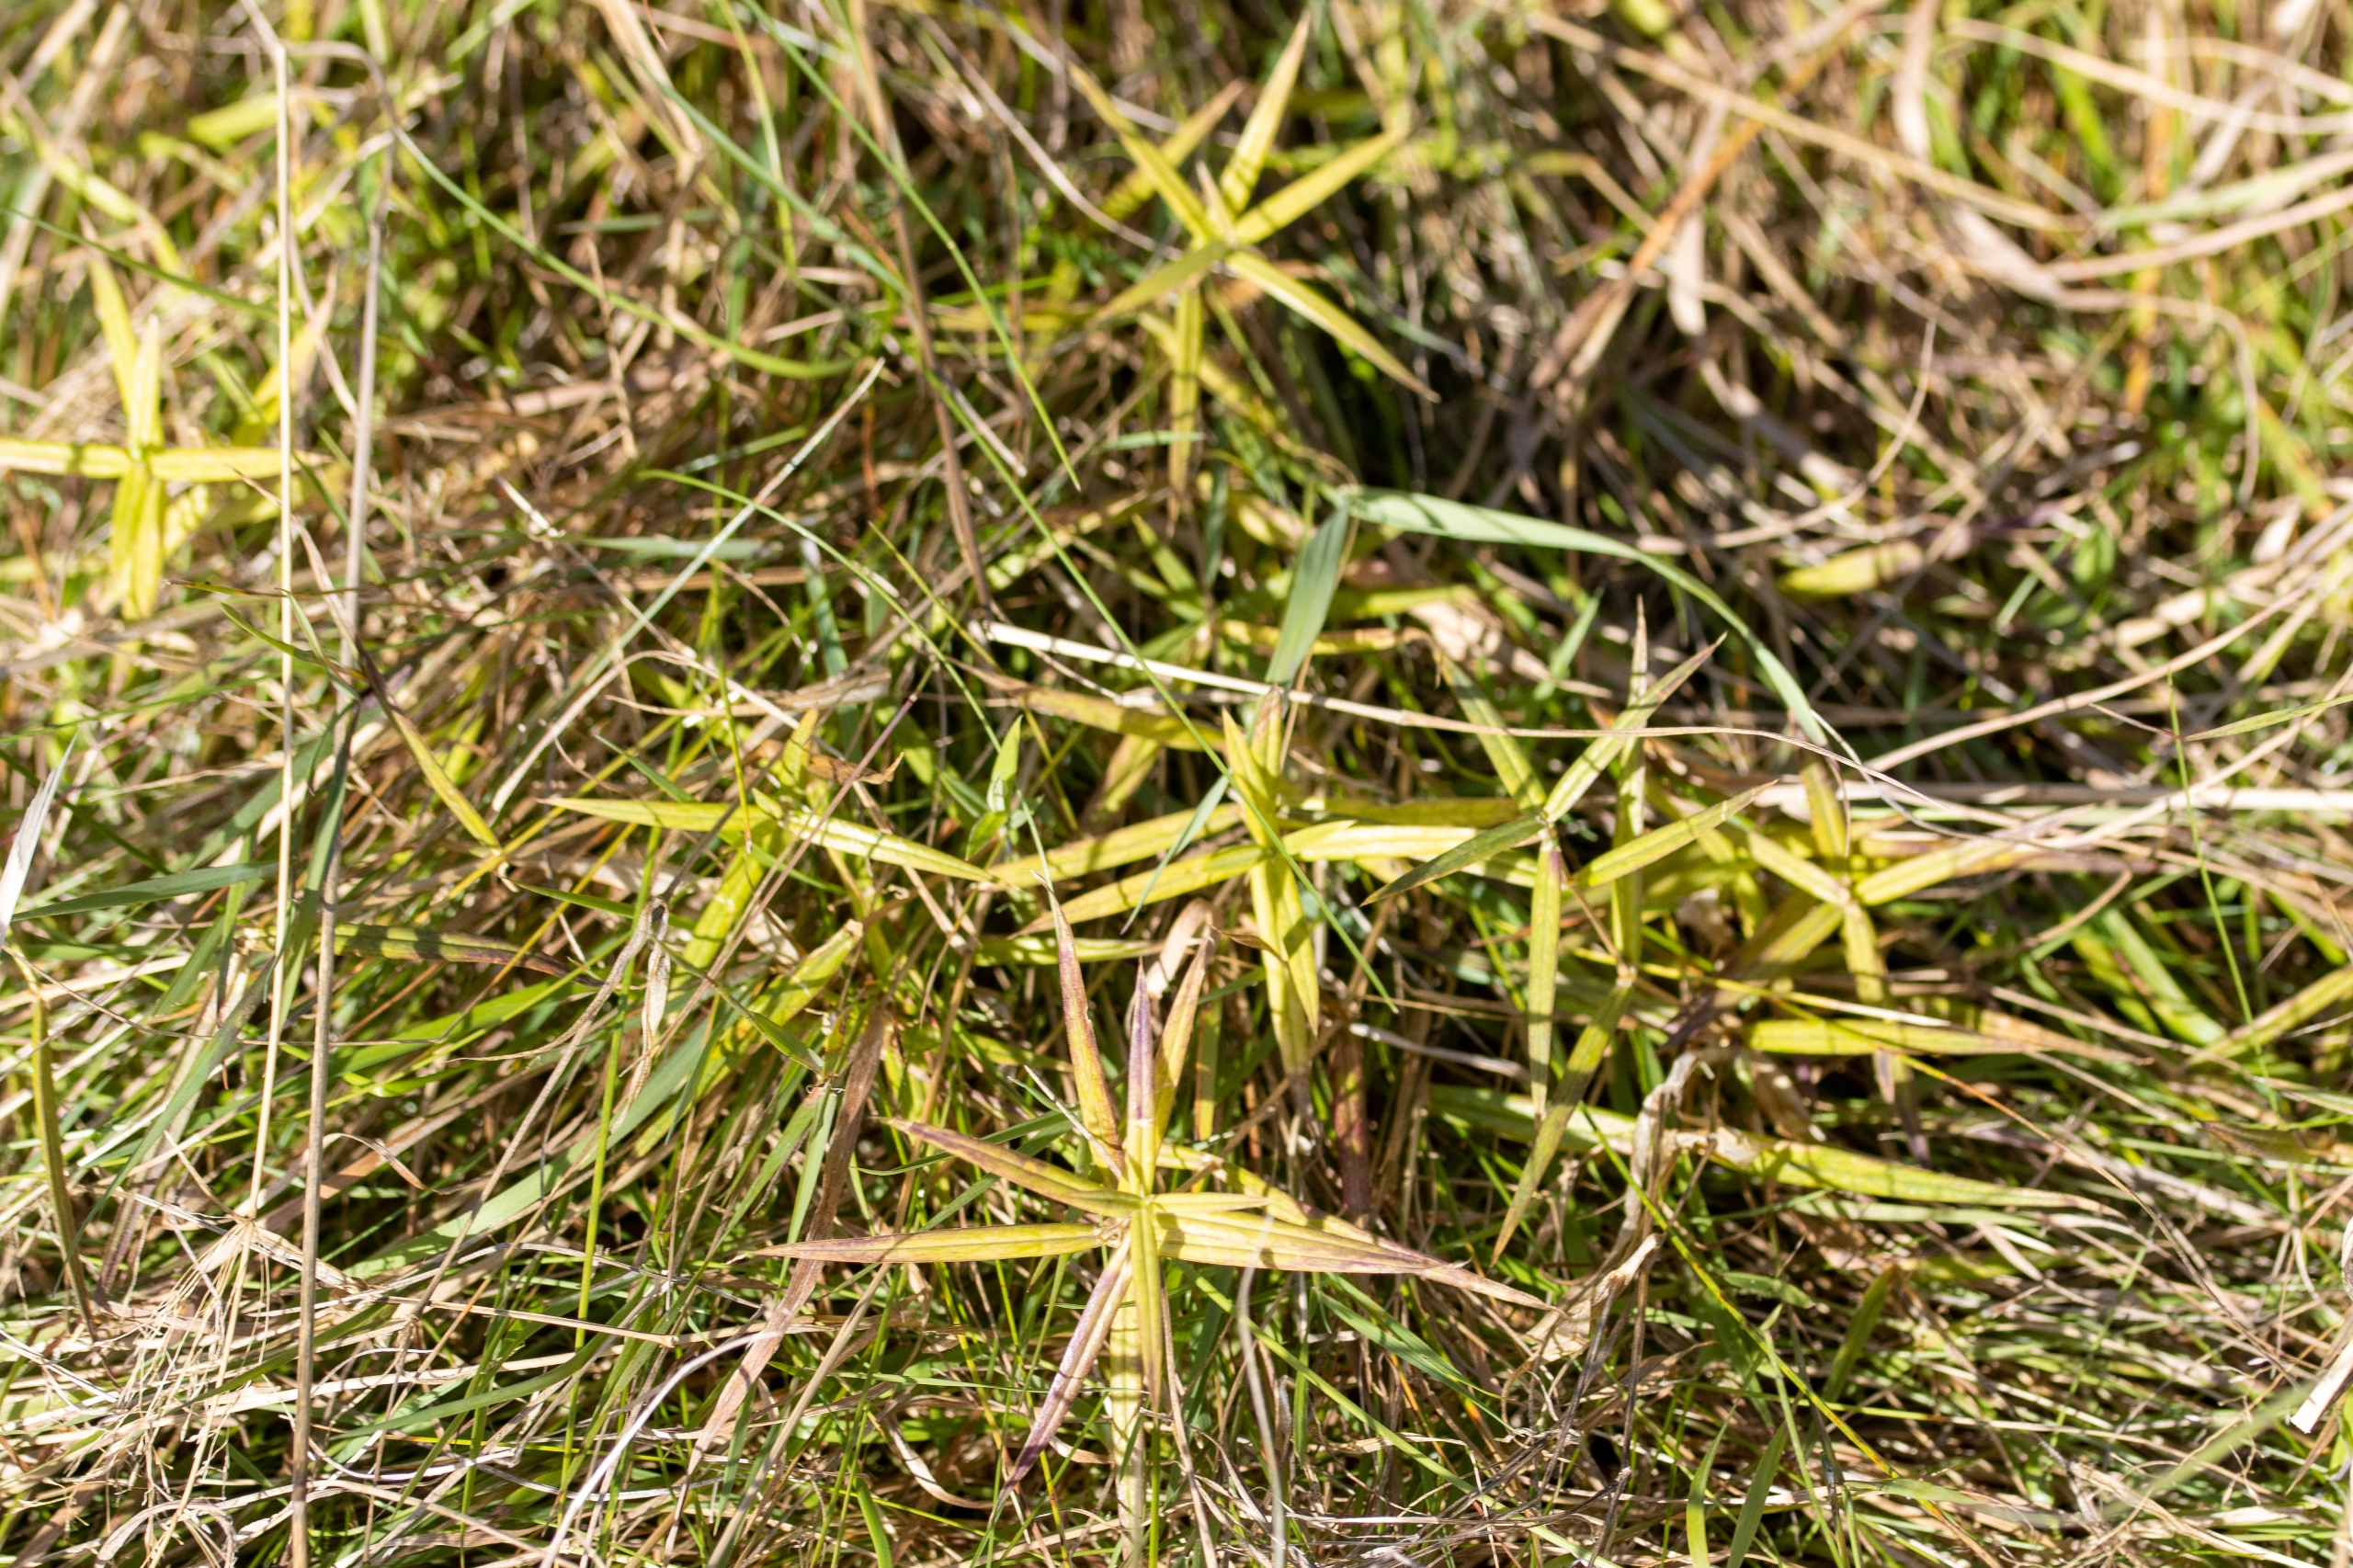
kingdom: Plantae
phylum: Tracheophyta
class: Magnoliopsida
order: Caryophyllales
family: Caryophyllaceae
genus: Rabelera
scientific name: Rabelera holostea
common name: Stor fladstjerne
